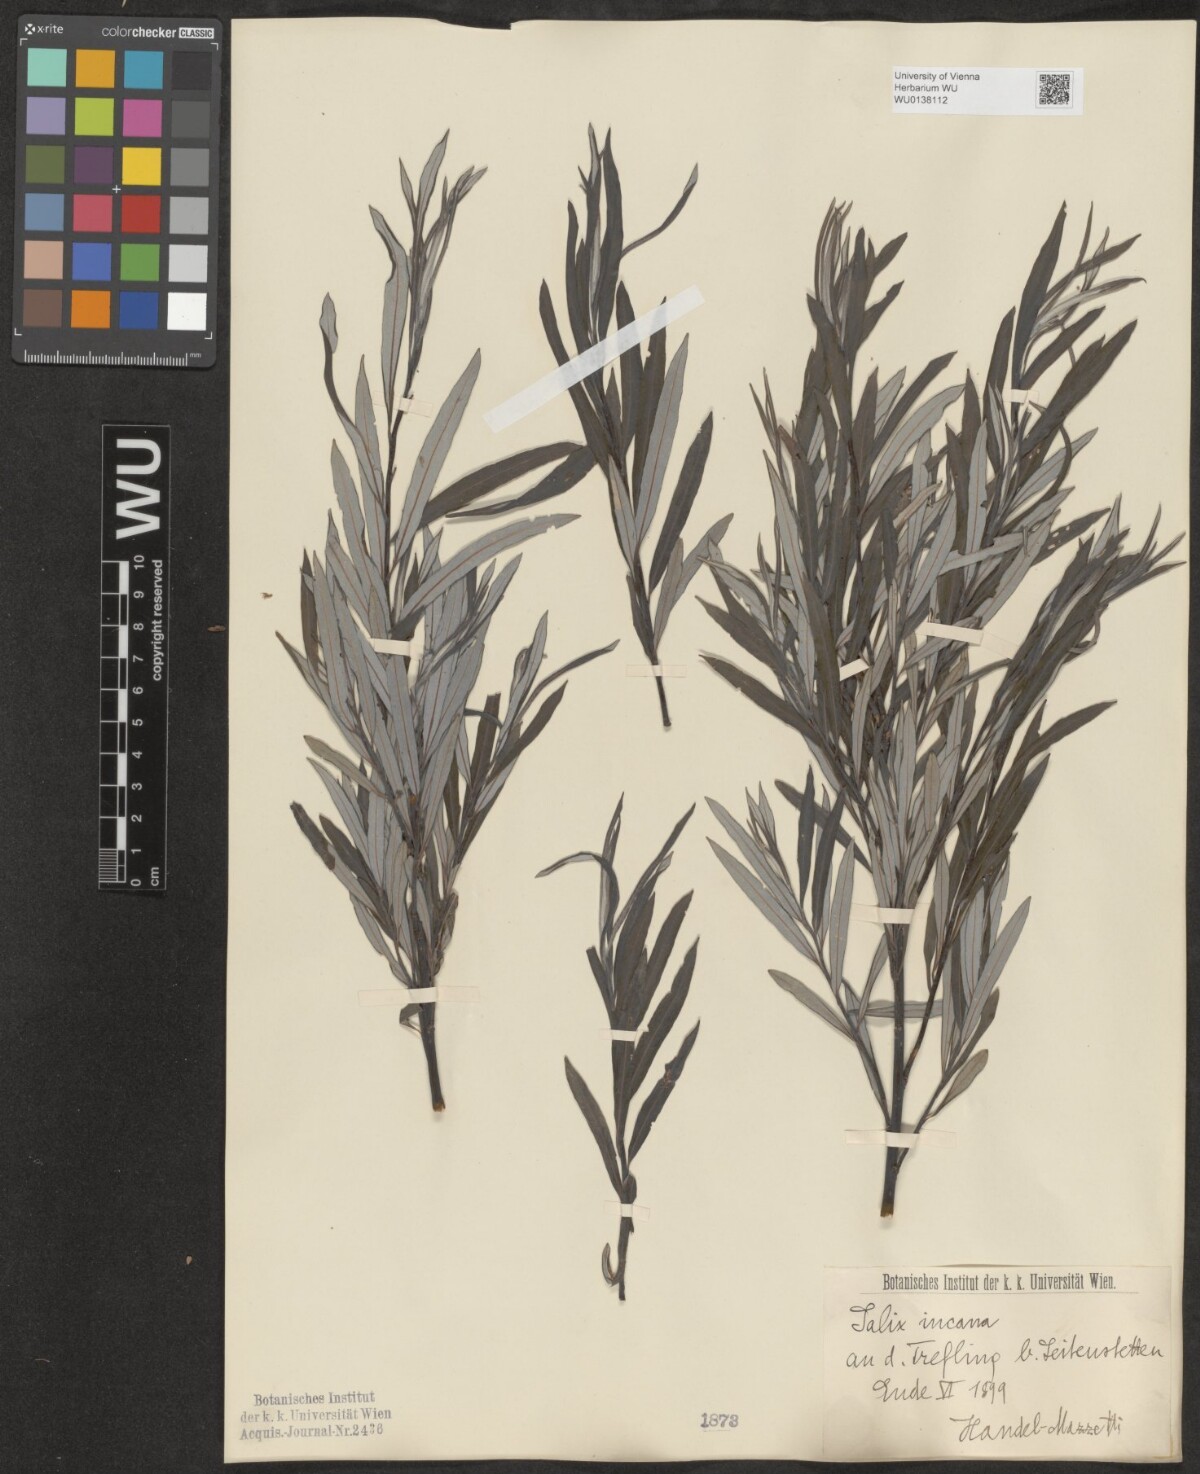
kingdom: Plantae
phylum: Tracheophyta
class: Magnoliopsida
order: Malpighiales
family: Salicaceae
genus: Salix
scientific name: Salix eleagnos
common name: Elaeagnus willow
